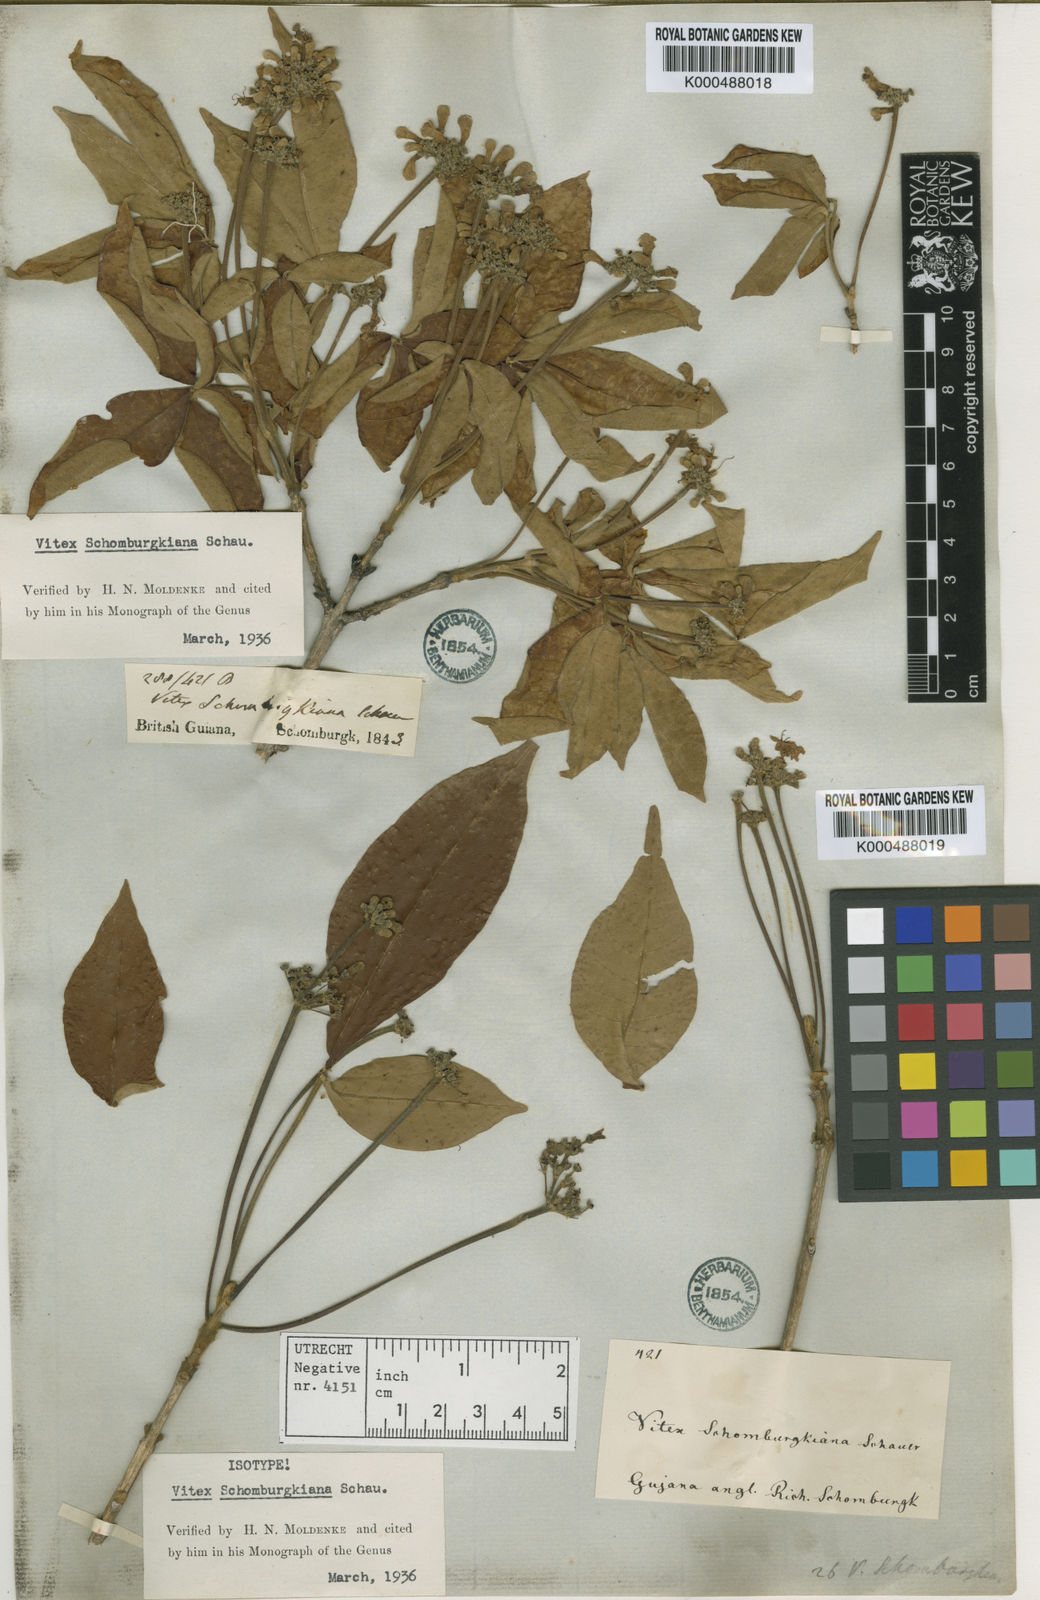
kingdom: Plantae
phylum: Tracheophyta
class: Magnoliopsida
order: Lamiales
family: Lamiaceae
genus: Vitex
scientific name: Vitex schomburgkiana
